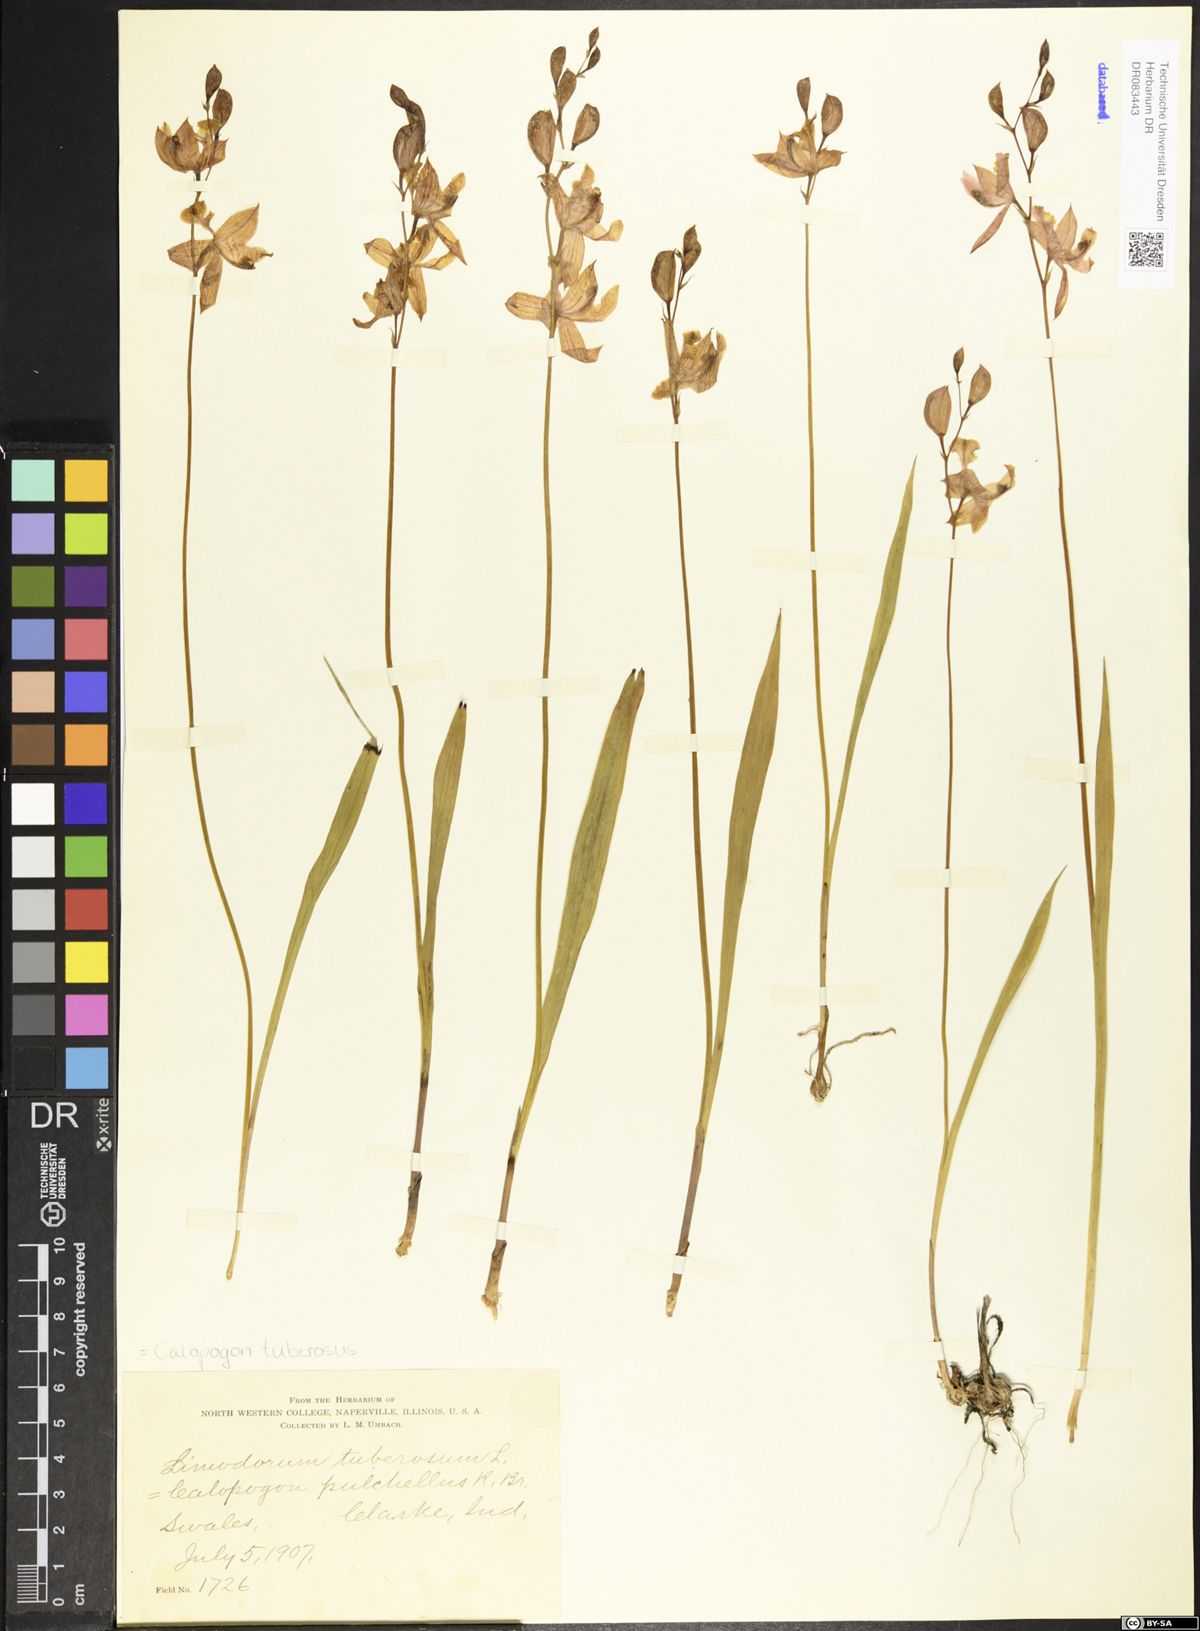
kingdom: Plantae
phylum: Tracheophyta
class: Liliopsida
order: Asparagales
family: Orchidaceae
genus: Calopogon
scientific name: Calopogon tuberosus
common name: Grass-pink
